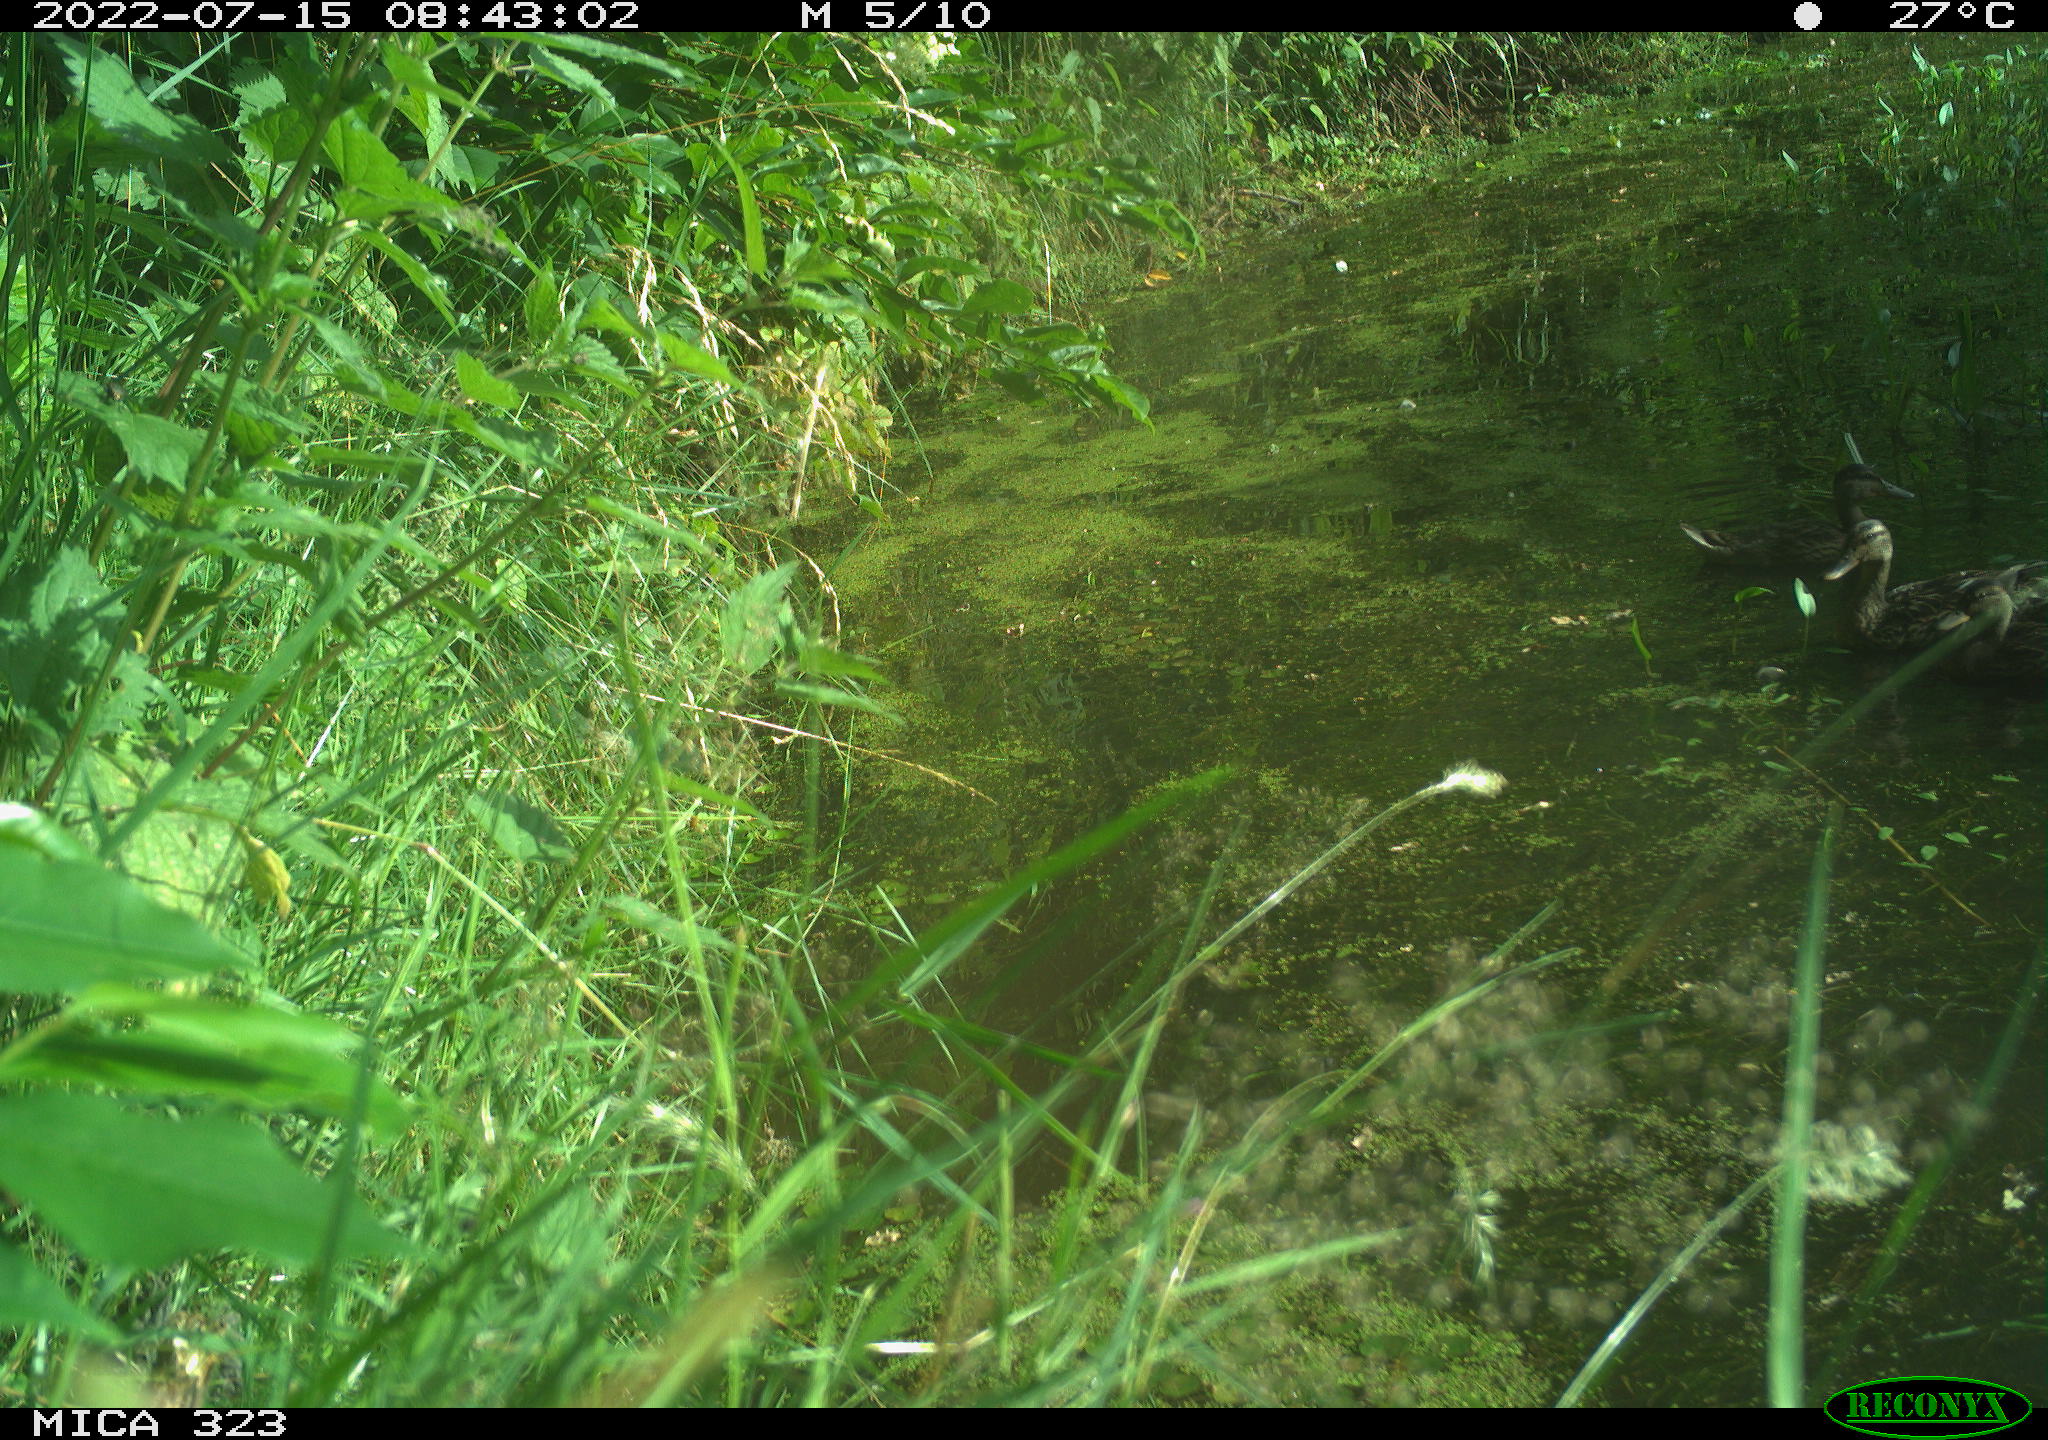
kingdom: Animalia
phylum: Chordata
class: Aves
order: Anseriformes
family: Anatidae
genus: Anas
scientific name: Anas platyrhynchos
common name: Mallard
